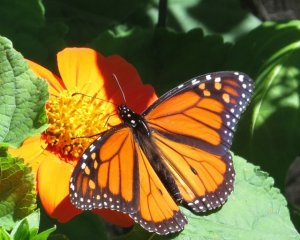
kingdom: Animalia
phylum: Arthropoda
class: Insecta
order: Lepidoptera
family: Nymphalidae
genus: Danaus
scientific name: Danaus plexippus
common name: Monarch
